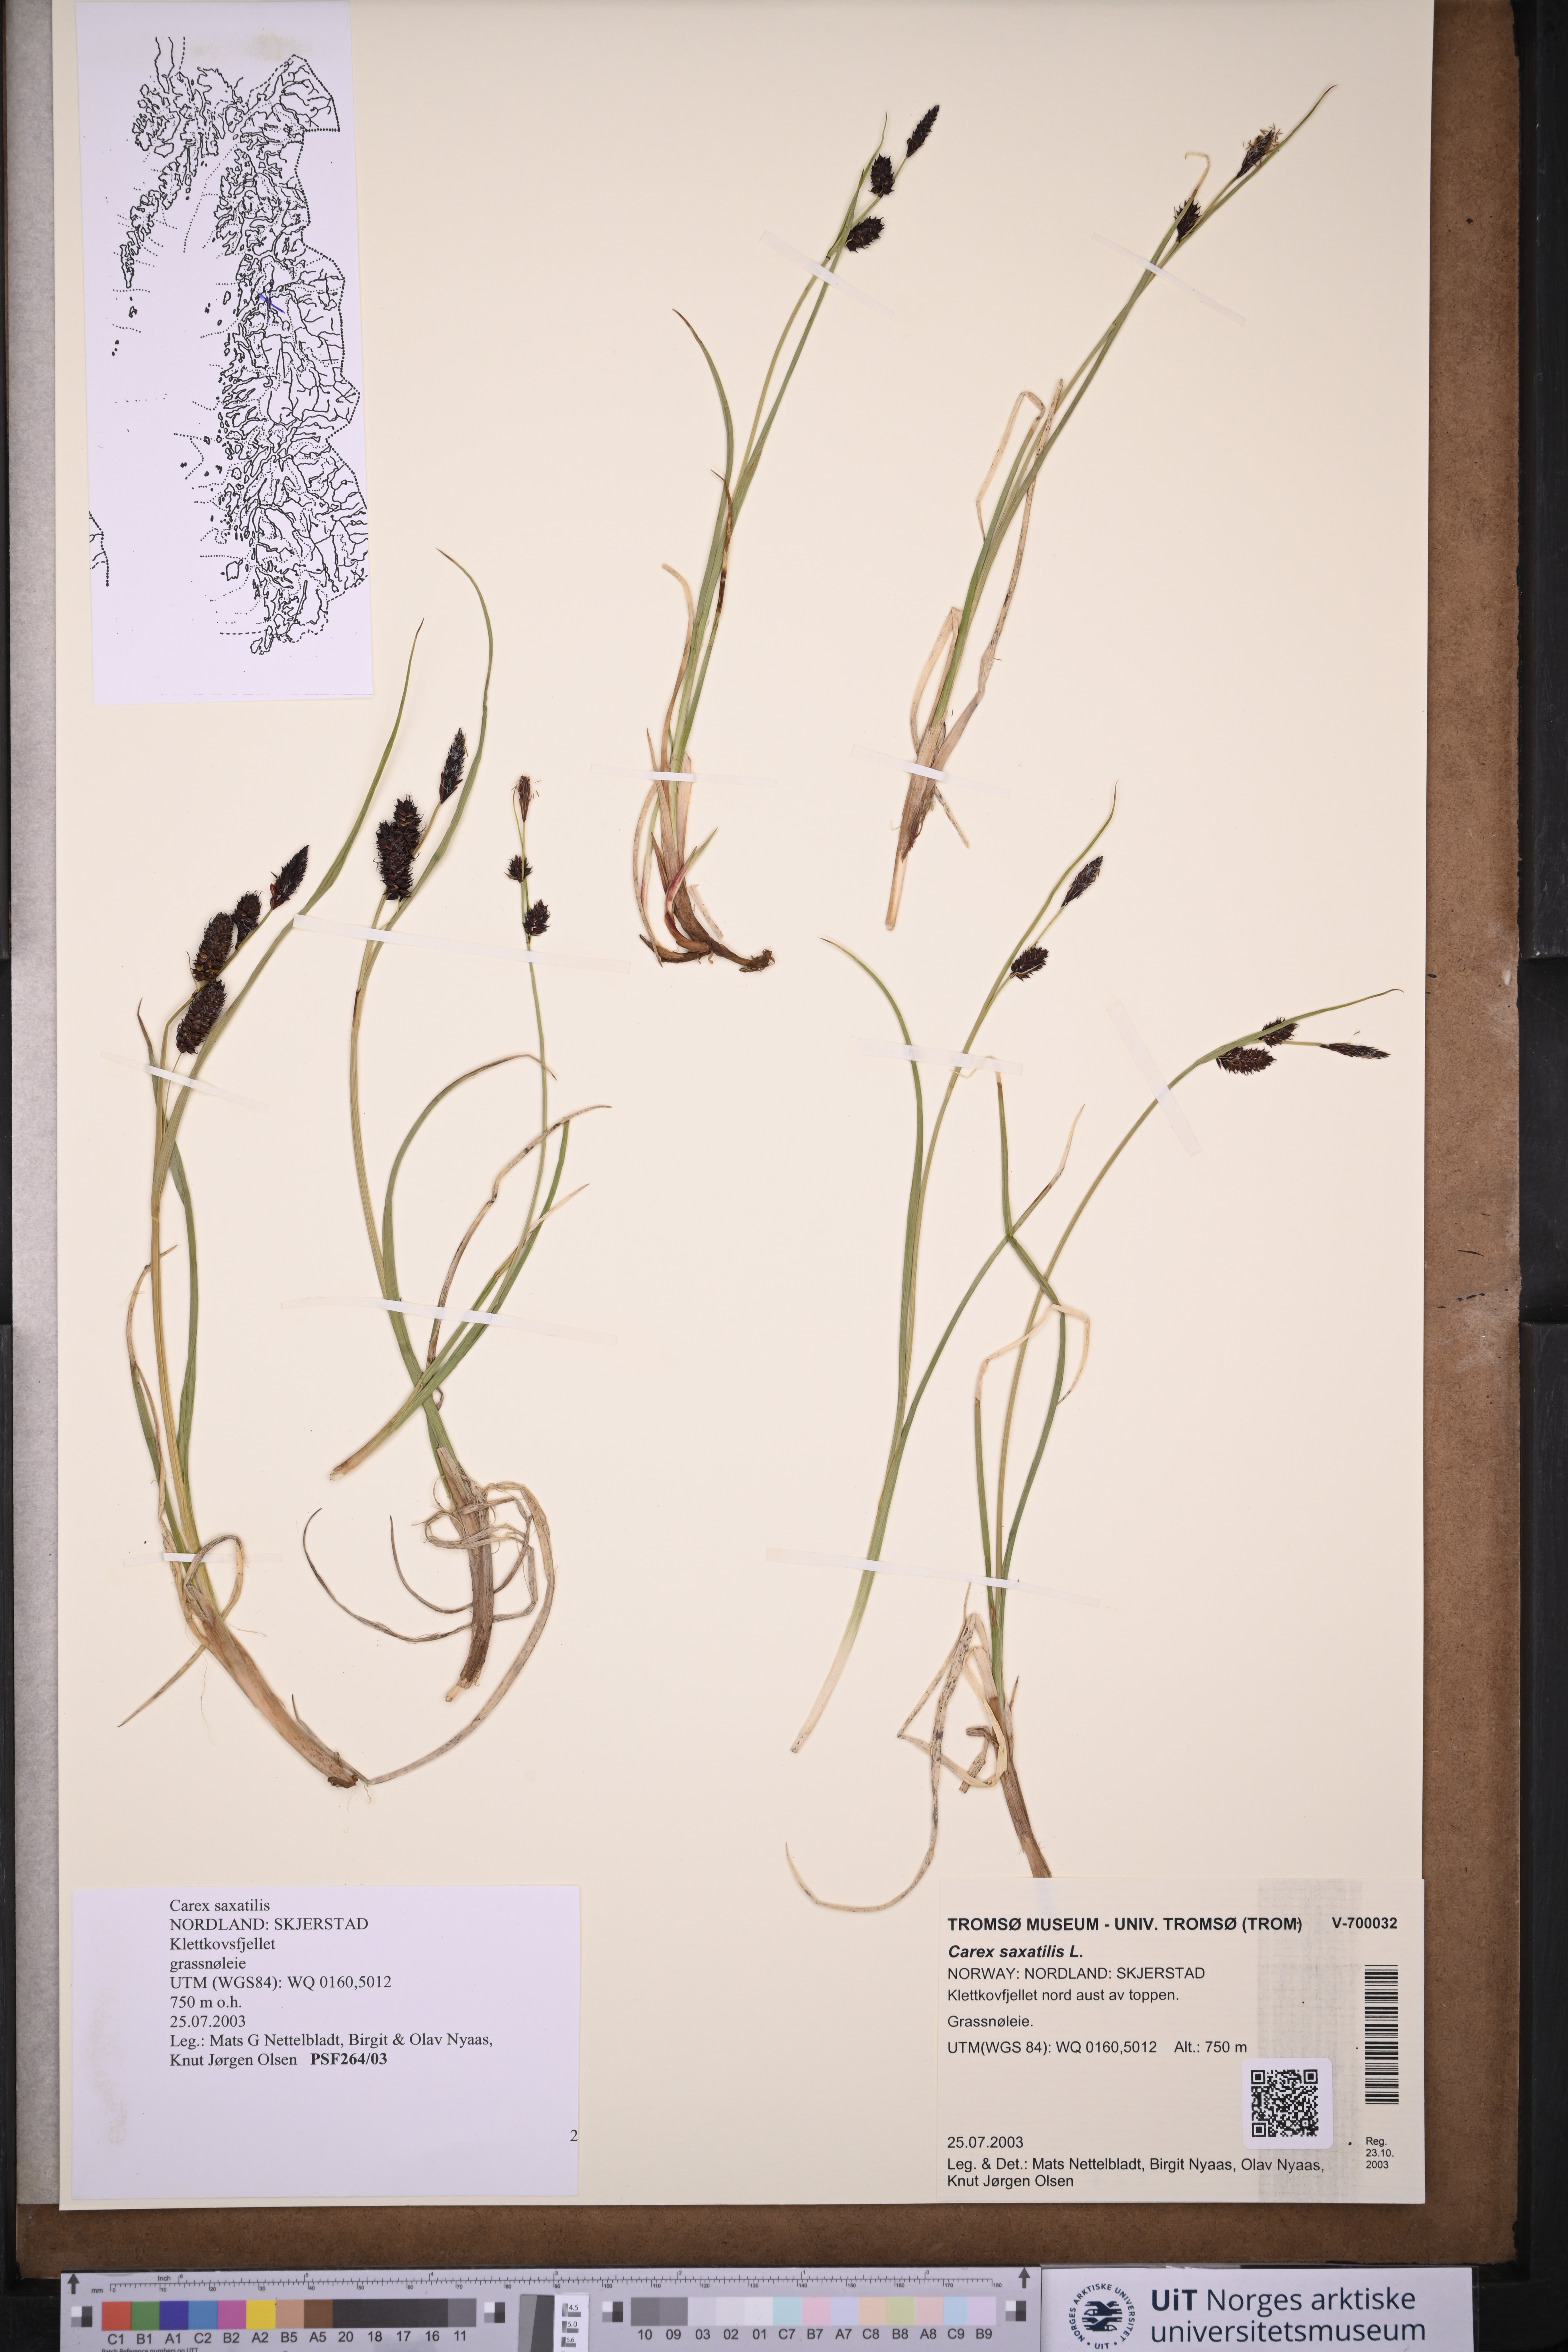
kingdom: Plantae
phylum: Tracheophyta
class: Liliopsida
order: Poales
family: Cyperaceae
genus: Carex
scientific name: Carex saxatilis
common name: Russet sedge
